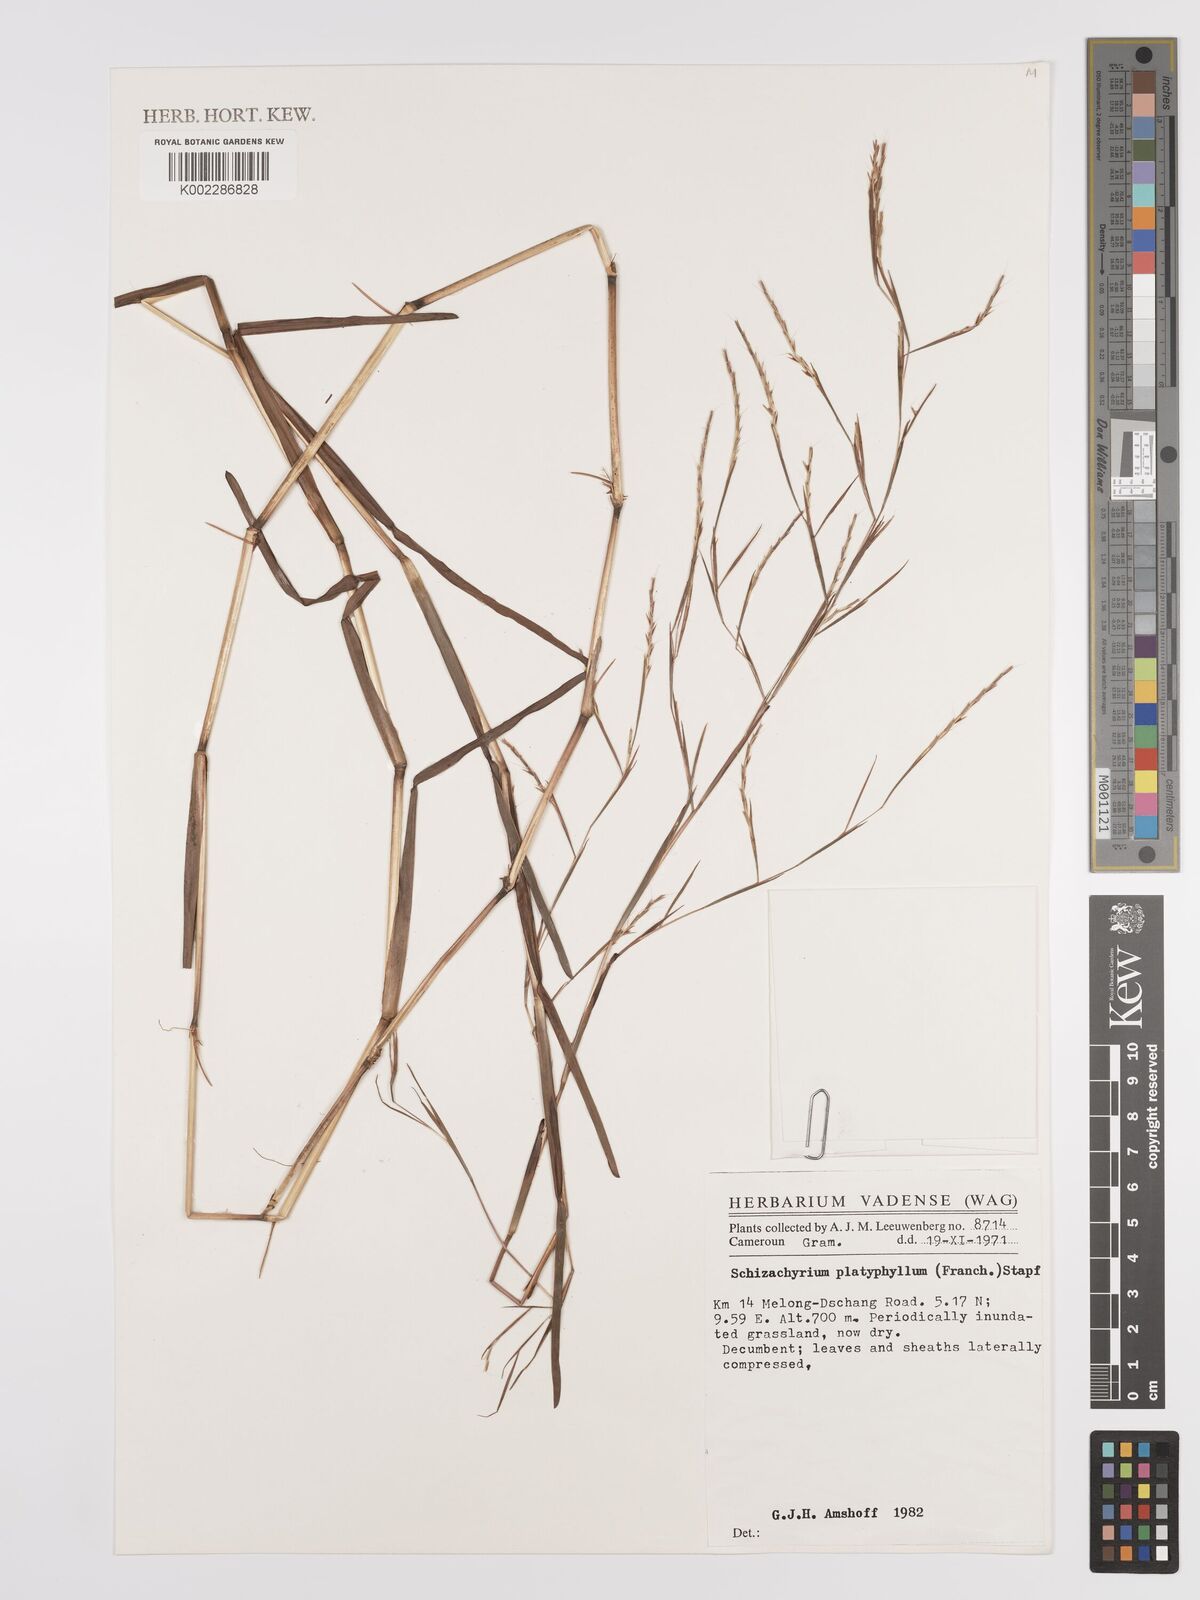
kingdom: Plantae
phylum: Tracheophyta
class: Liliopsida
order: Poales
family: Poaceae
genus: Schizachyrium
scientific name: Schizachyrium platyphyllum
